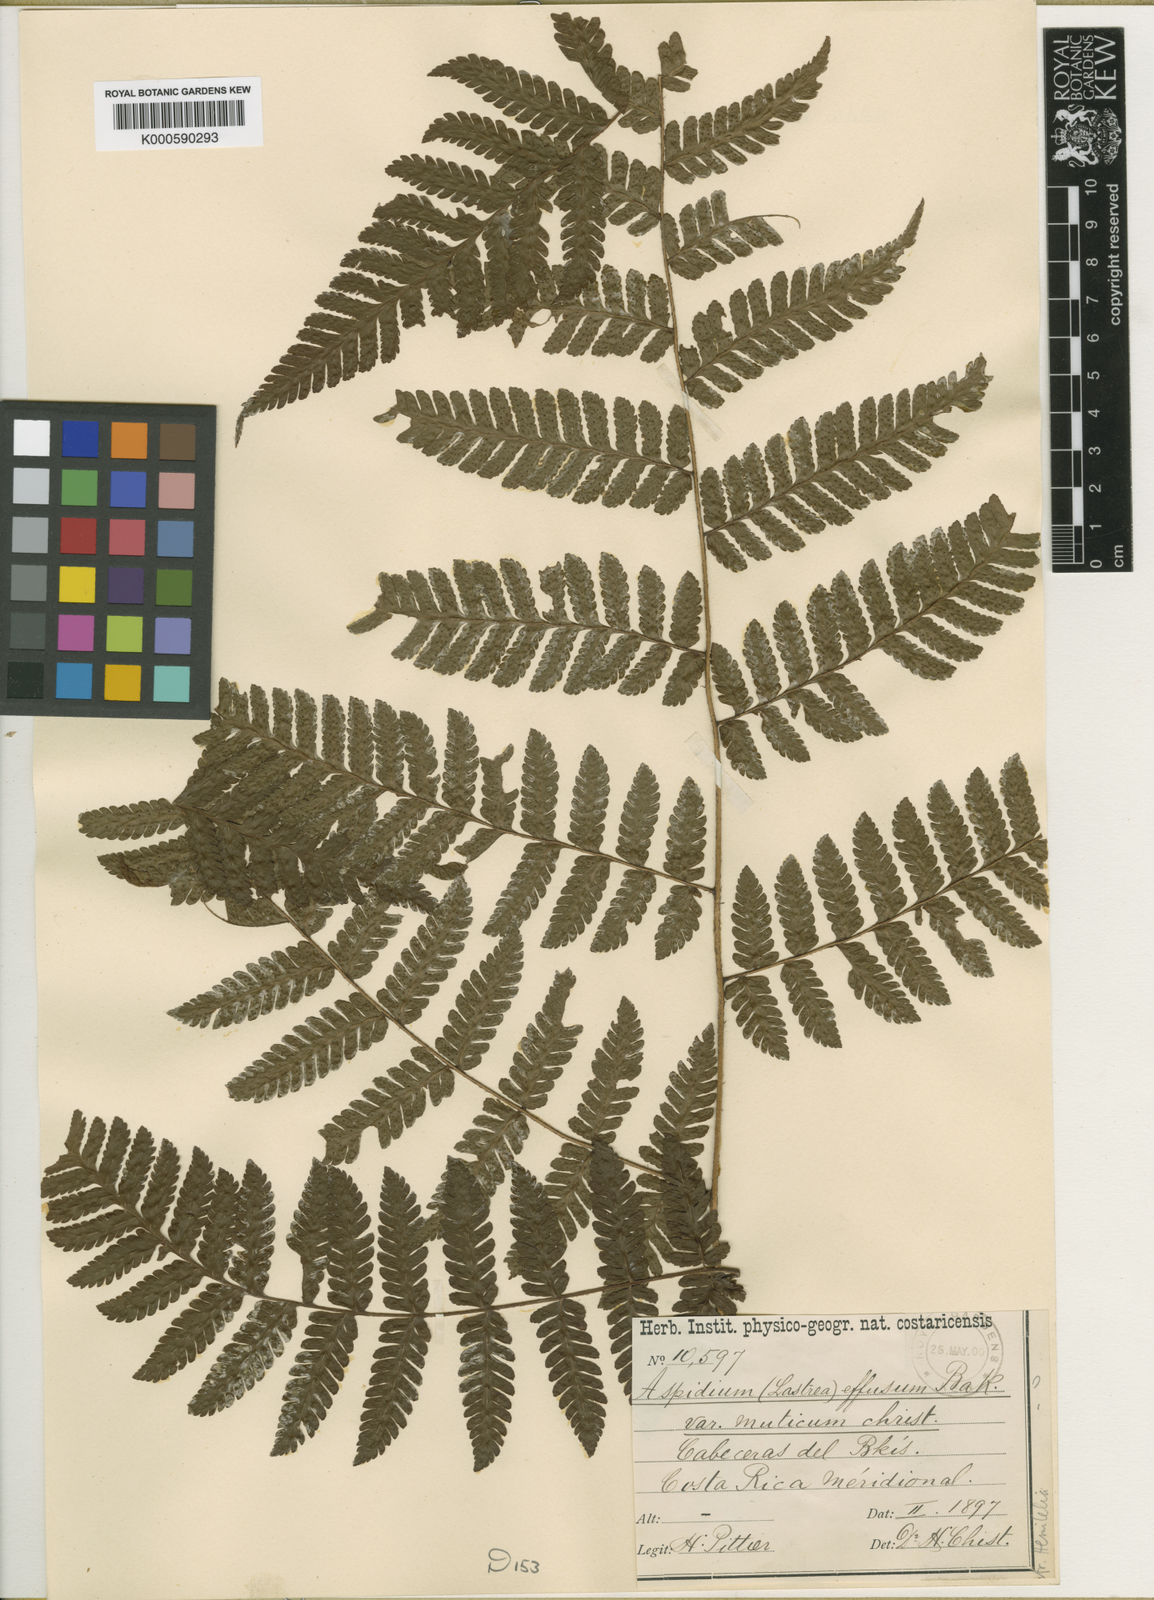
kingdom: Plantae
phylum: Tracheophyta
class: Polypodiopsida
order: Polypodiales
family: Dryopteridaceae
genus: Ctenitis
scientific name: Ctenitis excelsa
